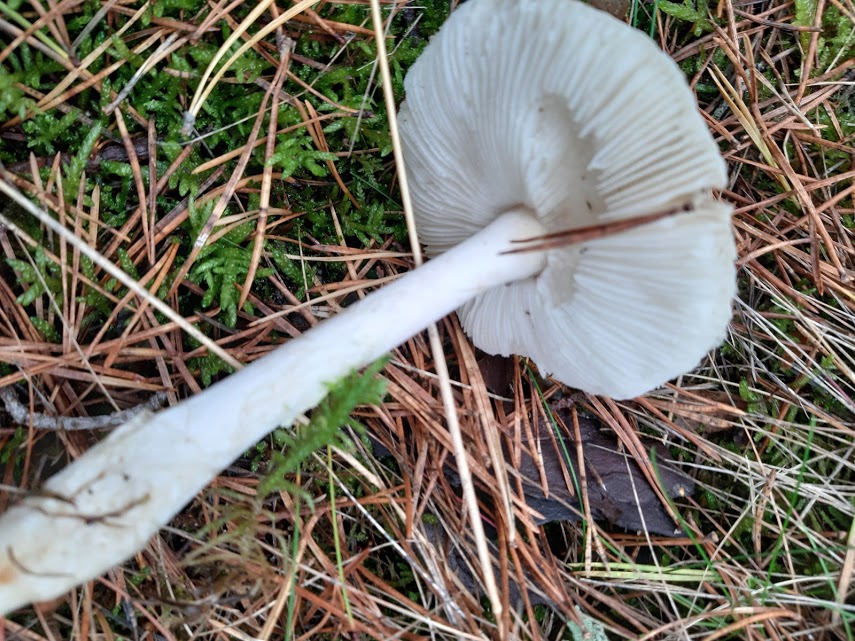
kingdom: Fungi
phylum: Basidiomycota
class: Agaricomycetes
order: Agaricales
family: Amanitaceae
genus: Amanita
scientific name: Amanita citrina
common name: kugleknoldet fluesvamp
